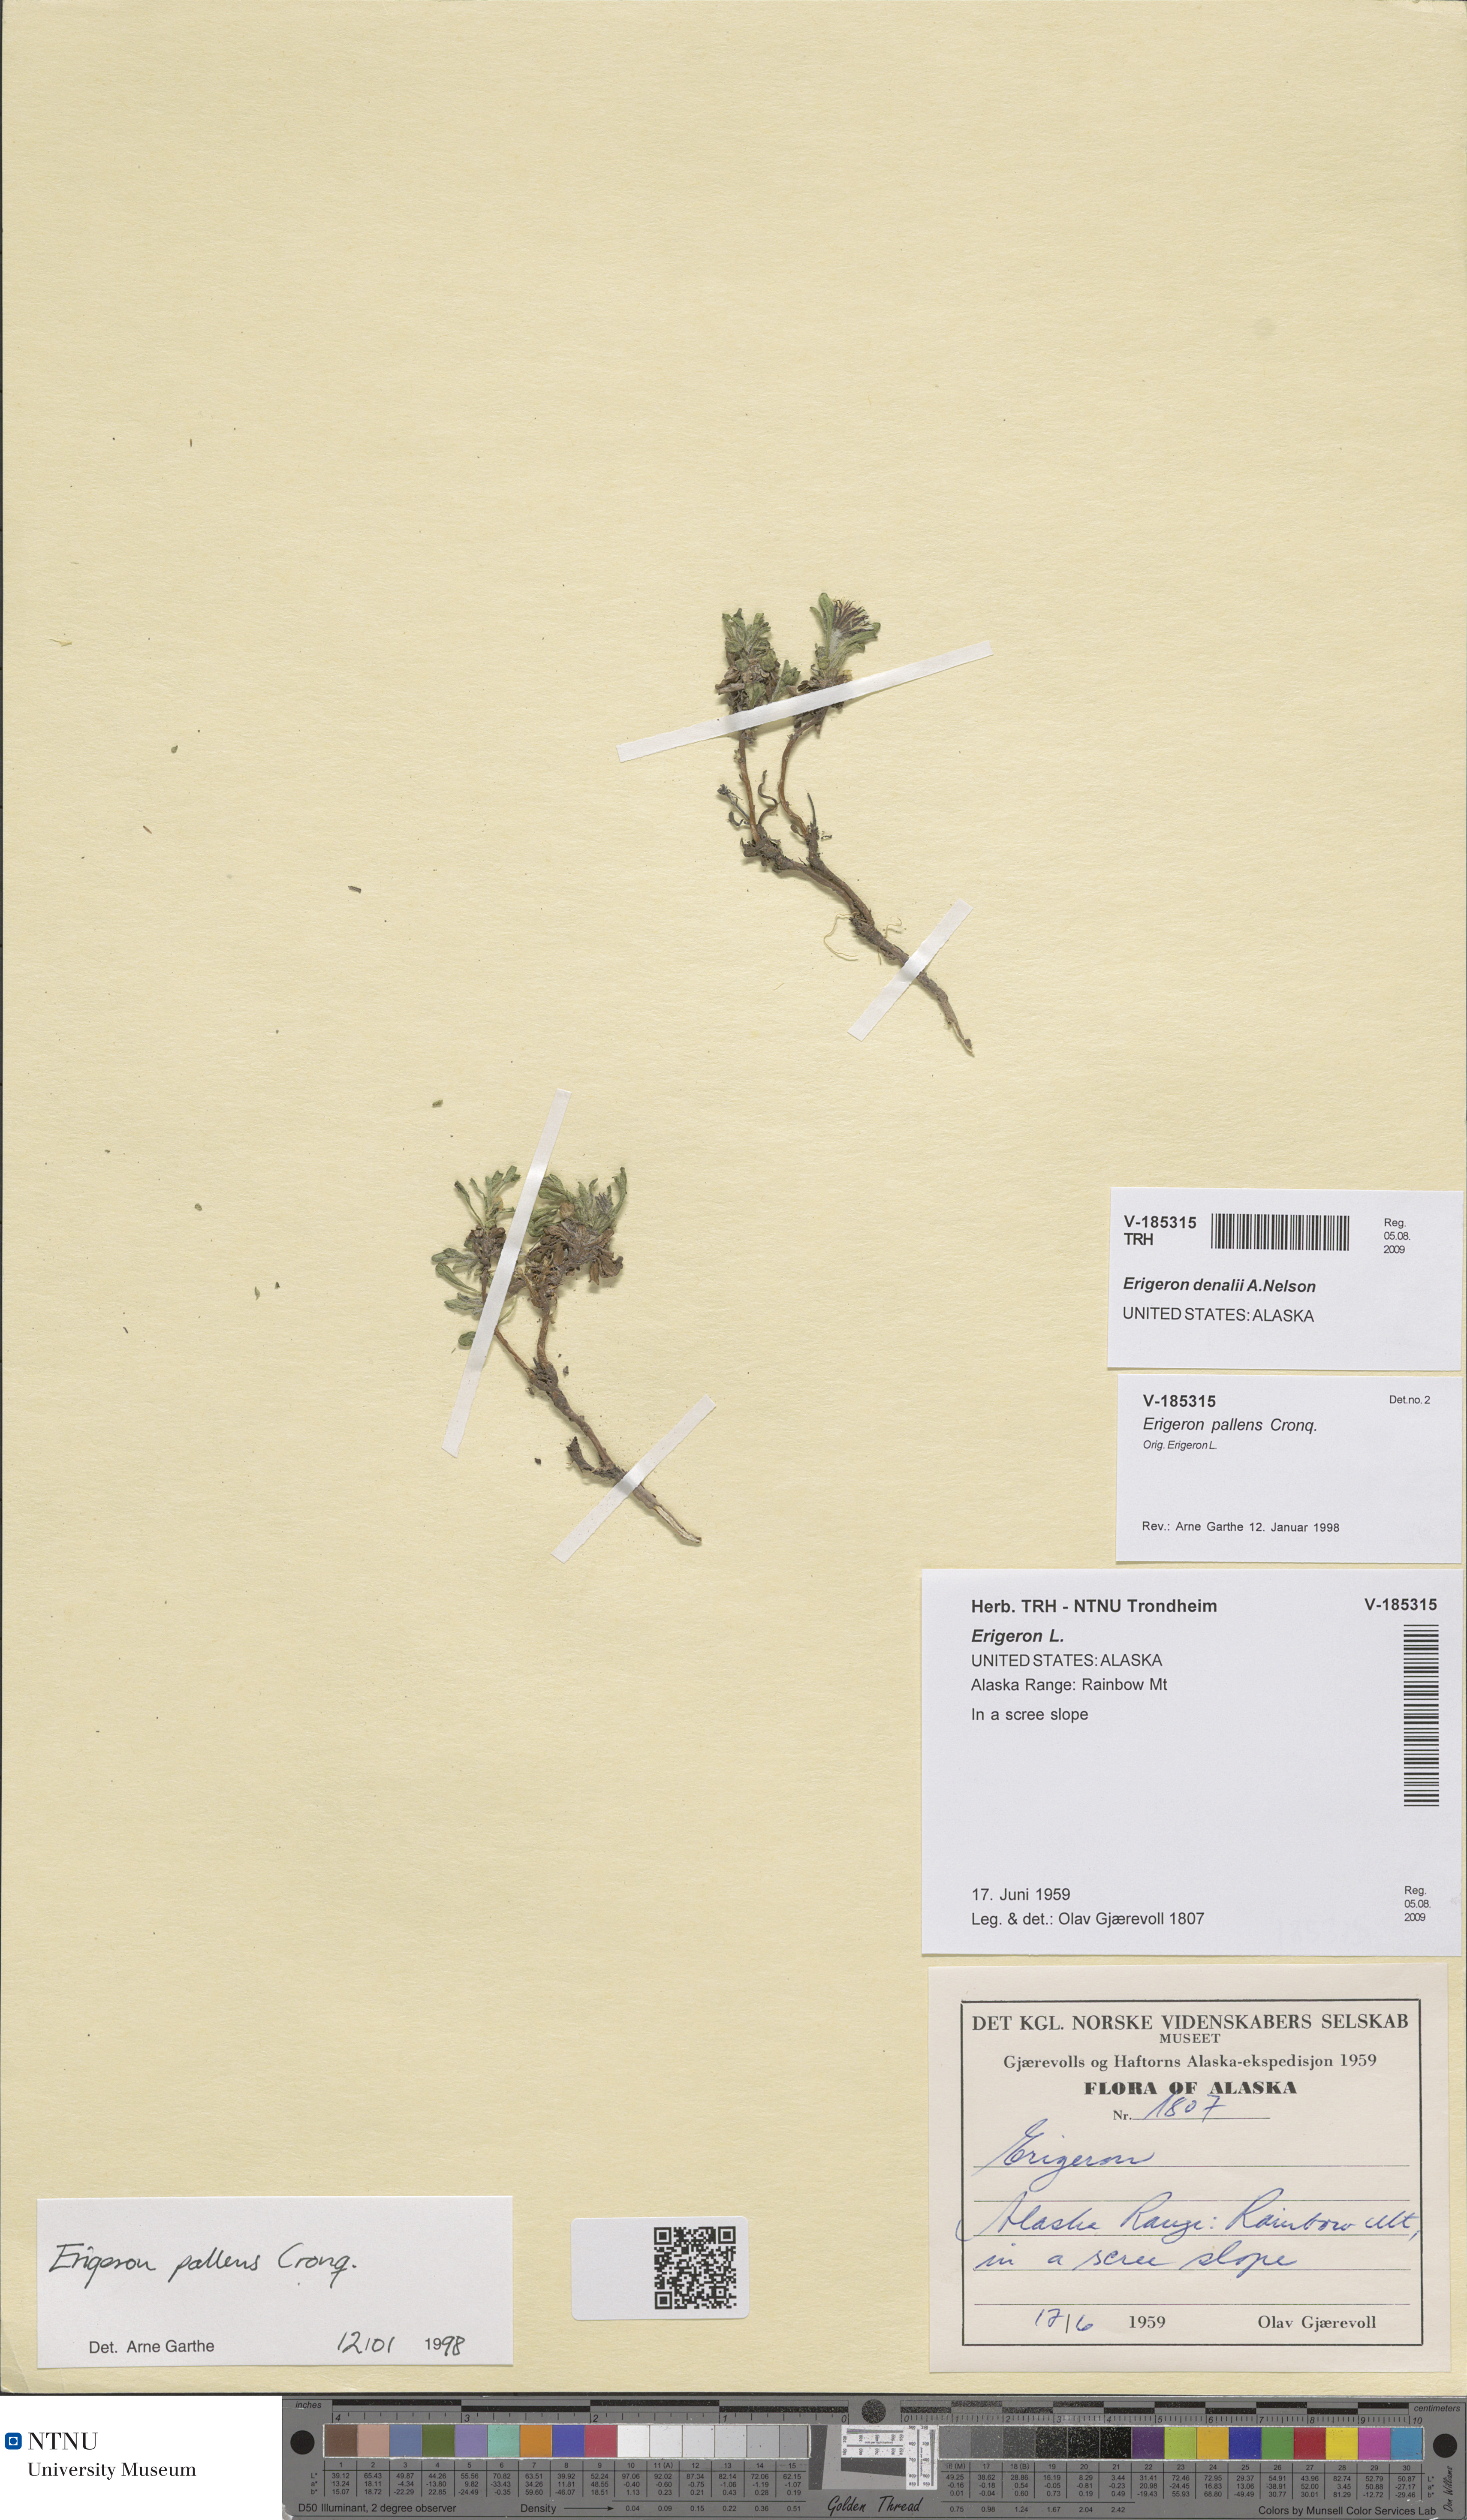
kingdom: Plantae
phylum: Tracheophyta
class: Magnoliopsida
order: Asterales
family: Asteraceae
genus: Erigeron
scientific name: Erigeron denalii
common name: Denali fleabane
